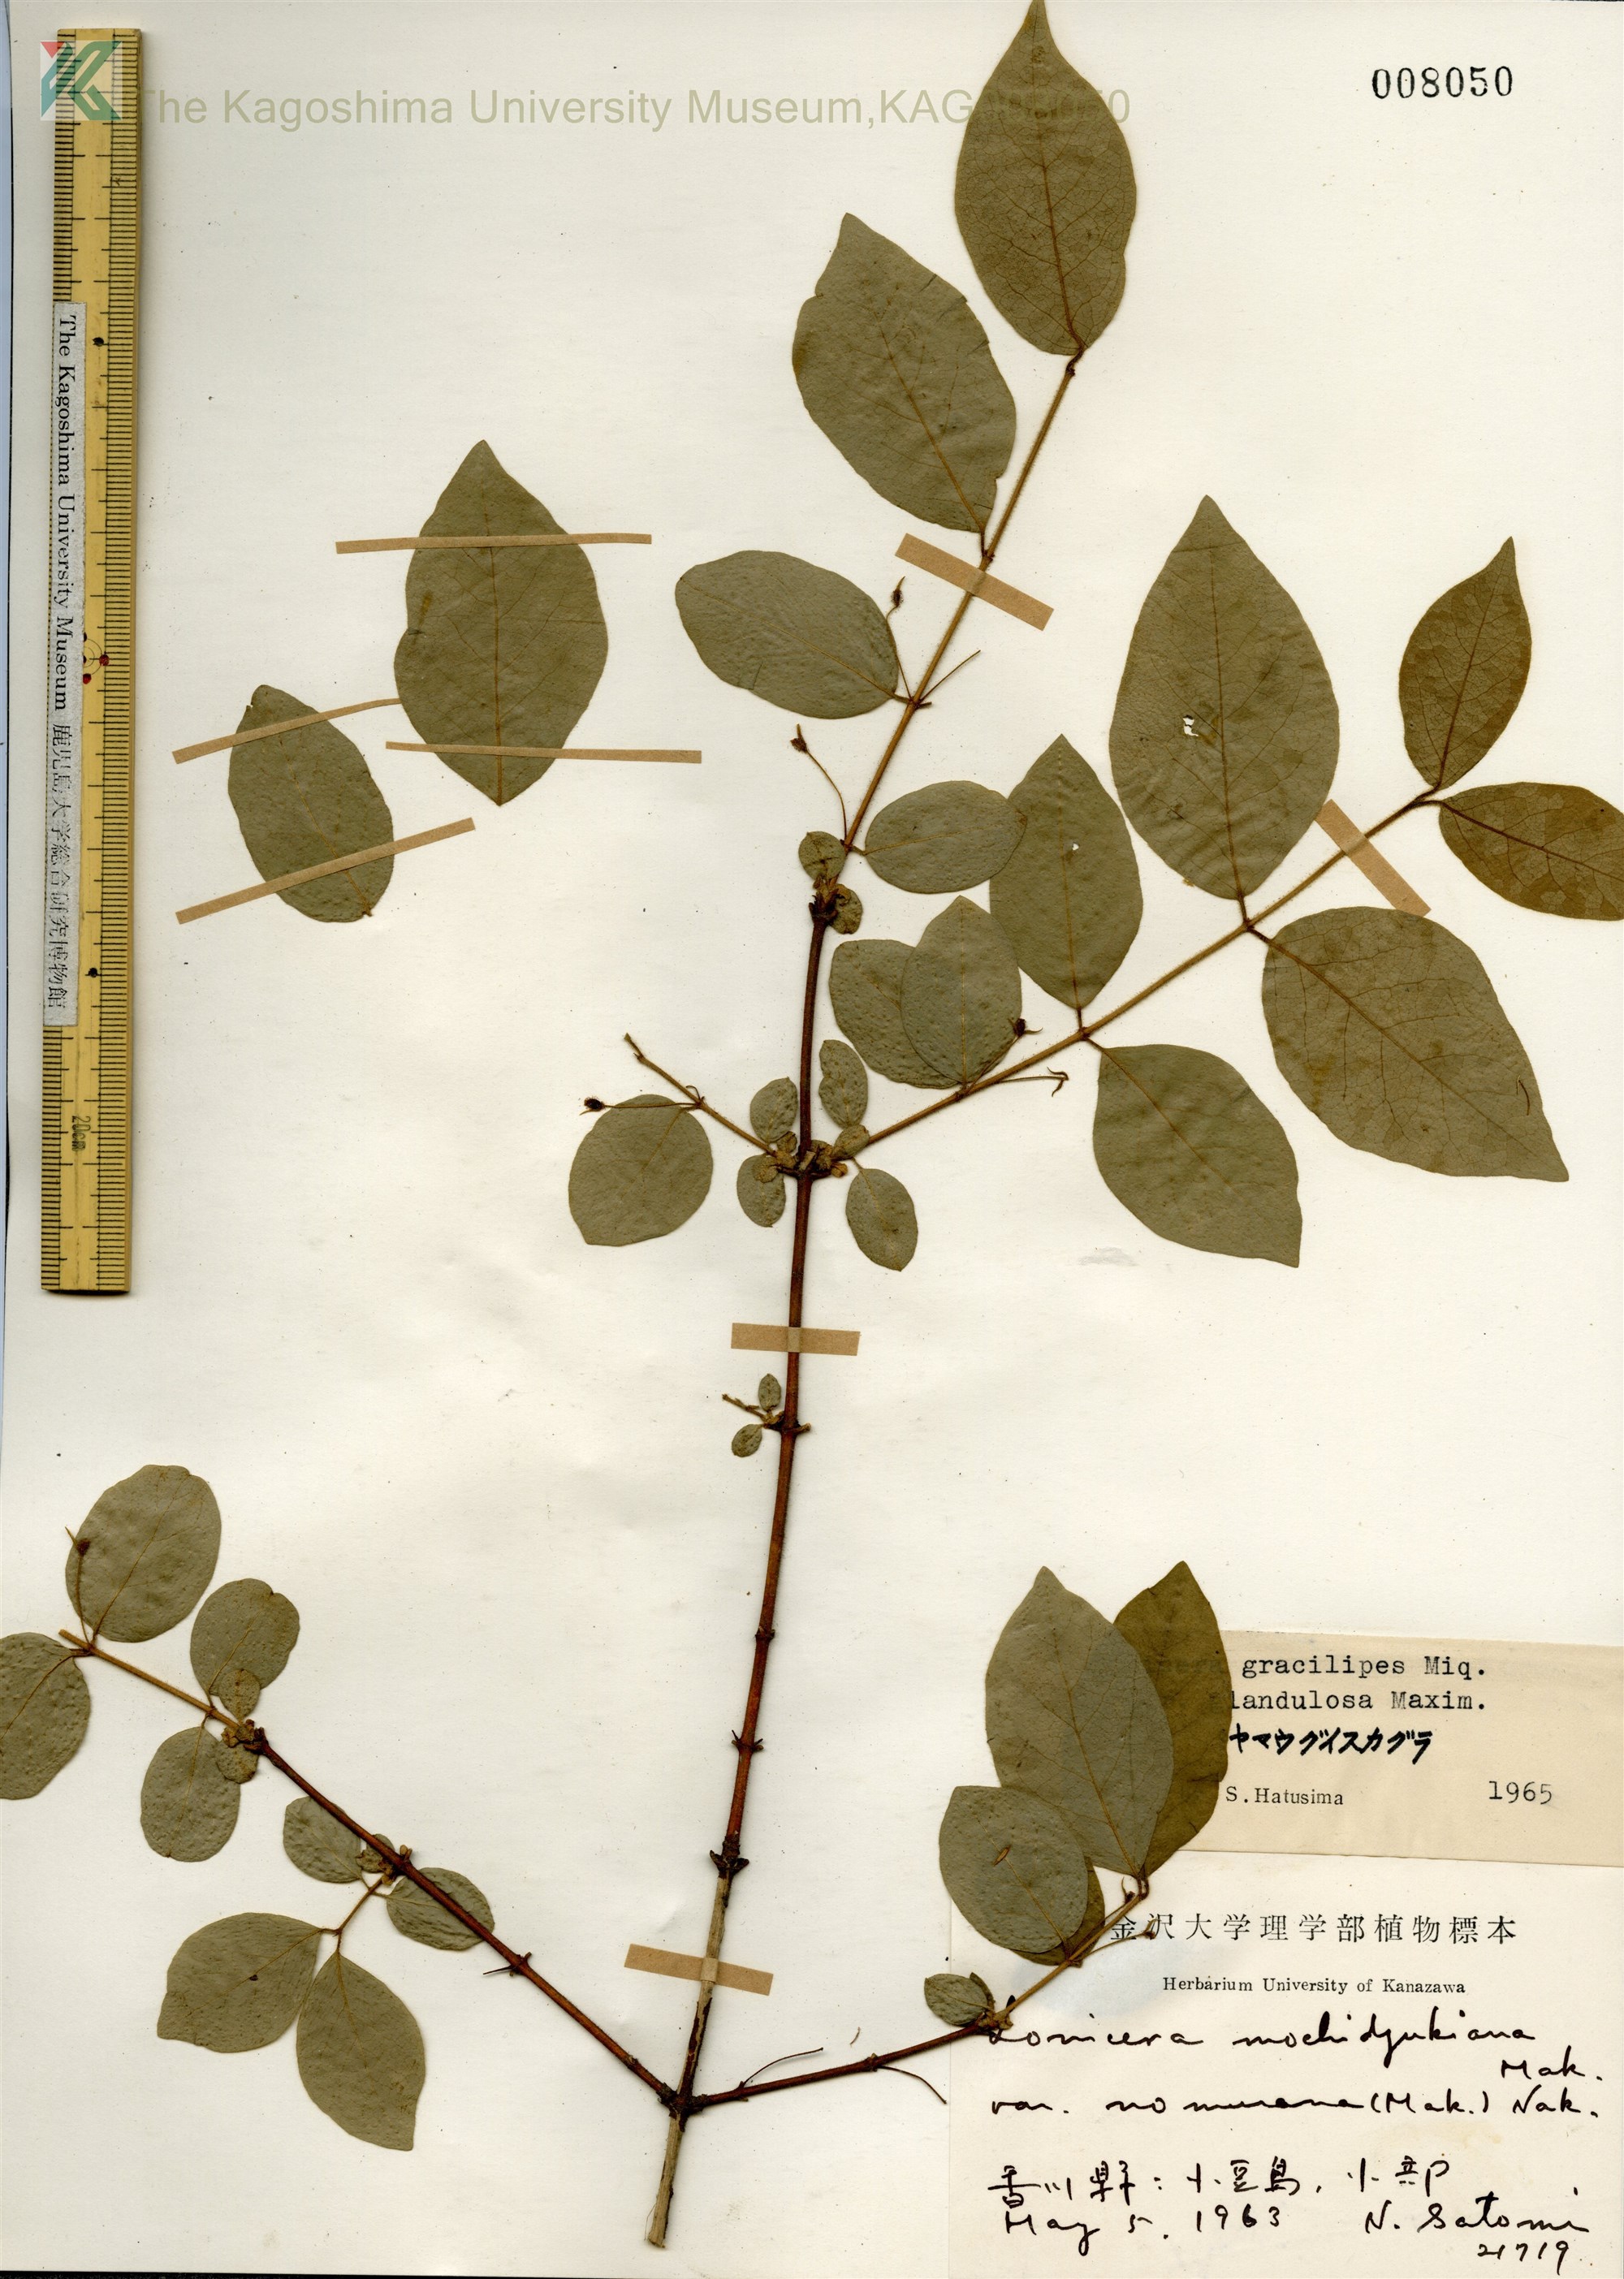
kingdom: Plantae
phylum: Tracheophyta
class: Magnoliopsida
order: Dipsacales
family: Caprifoliaceae
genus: Lonicera
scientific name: Lonicera gracilipes
